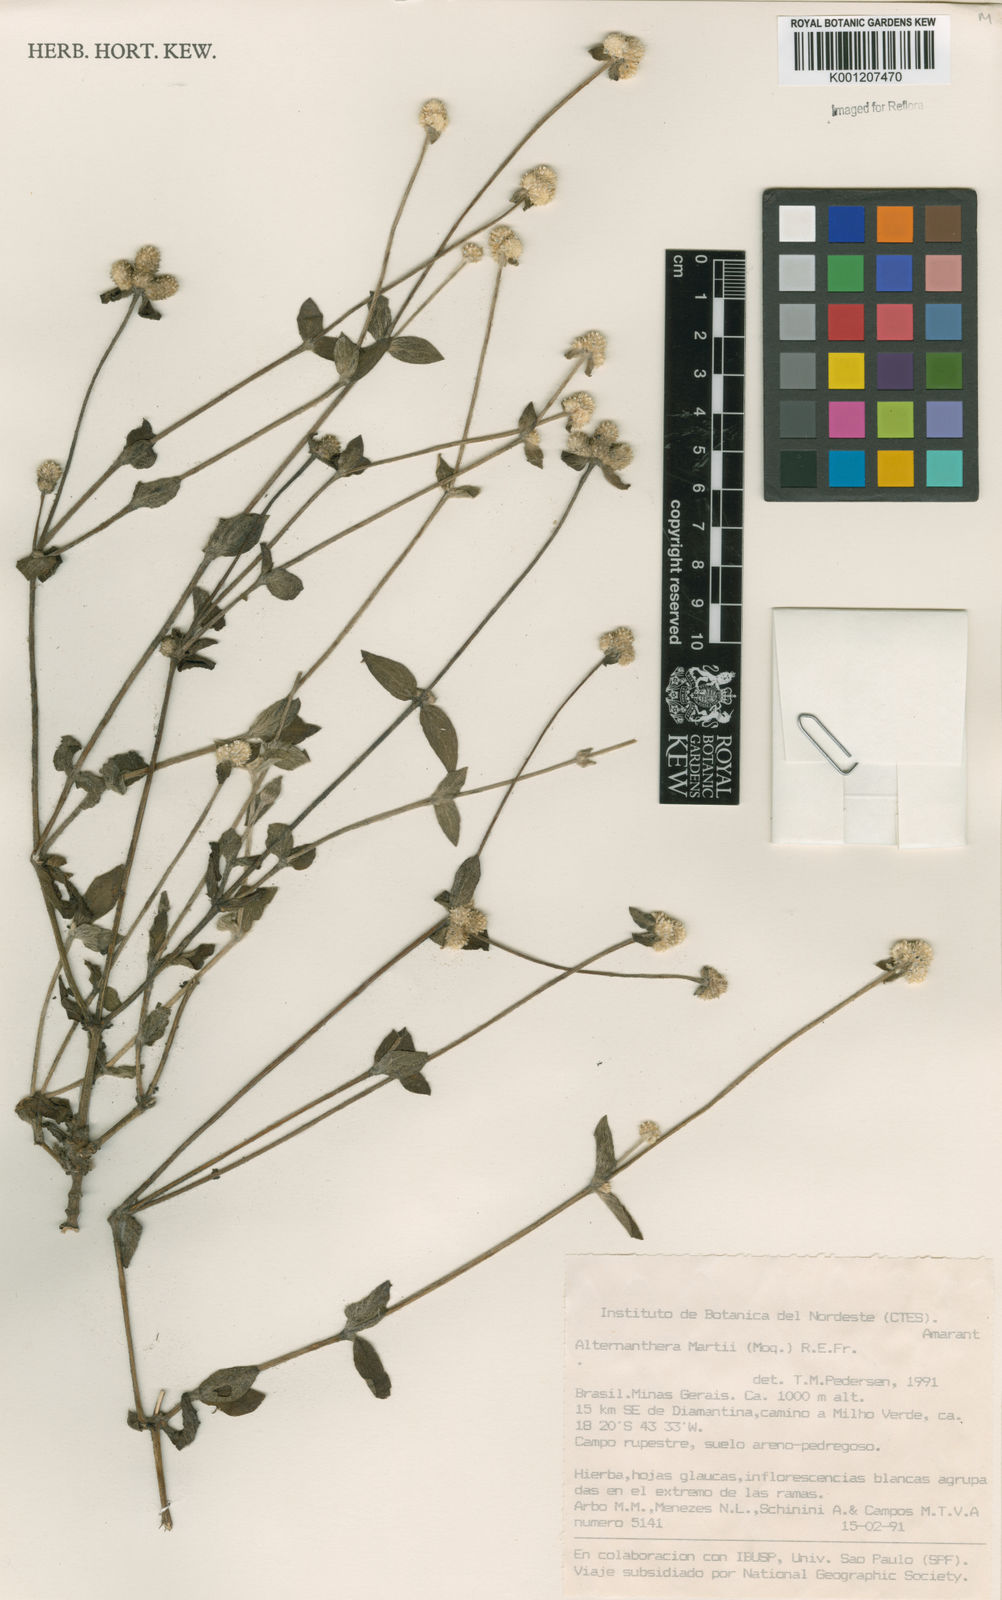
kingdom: Plantae
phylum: Tracheophyta
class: Magnoliopsida
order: Caryophyllales
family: Amaranthaceae
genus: Alternanthera
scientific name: Alternanthera martii
